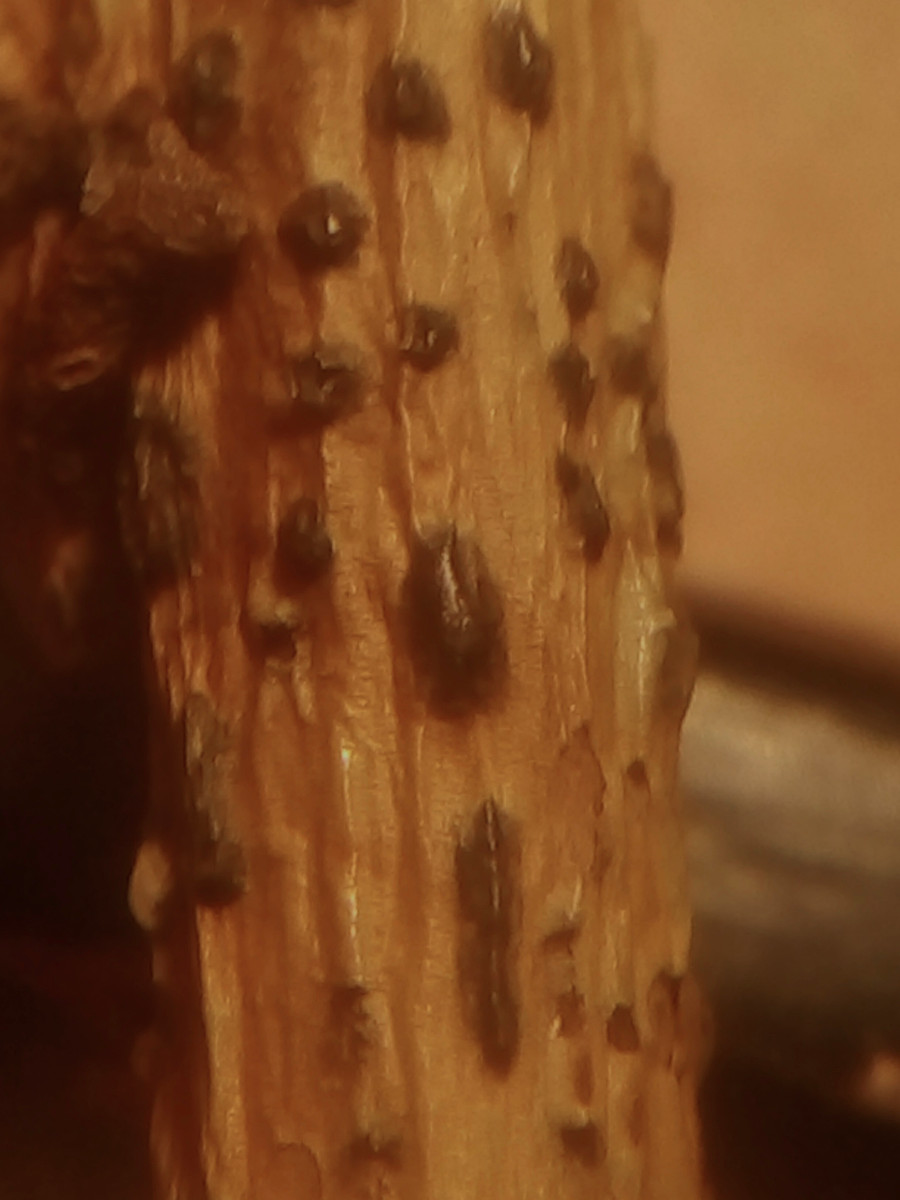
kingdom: Fungi
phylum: Ascomycota
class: Sordariomycetes
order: Diaporthales
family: Gnomoniaceae
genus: Plagiostoma
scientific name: Plagiostoma salicellum
